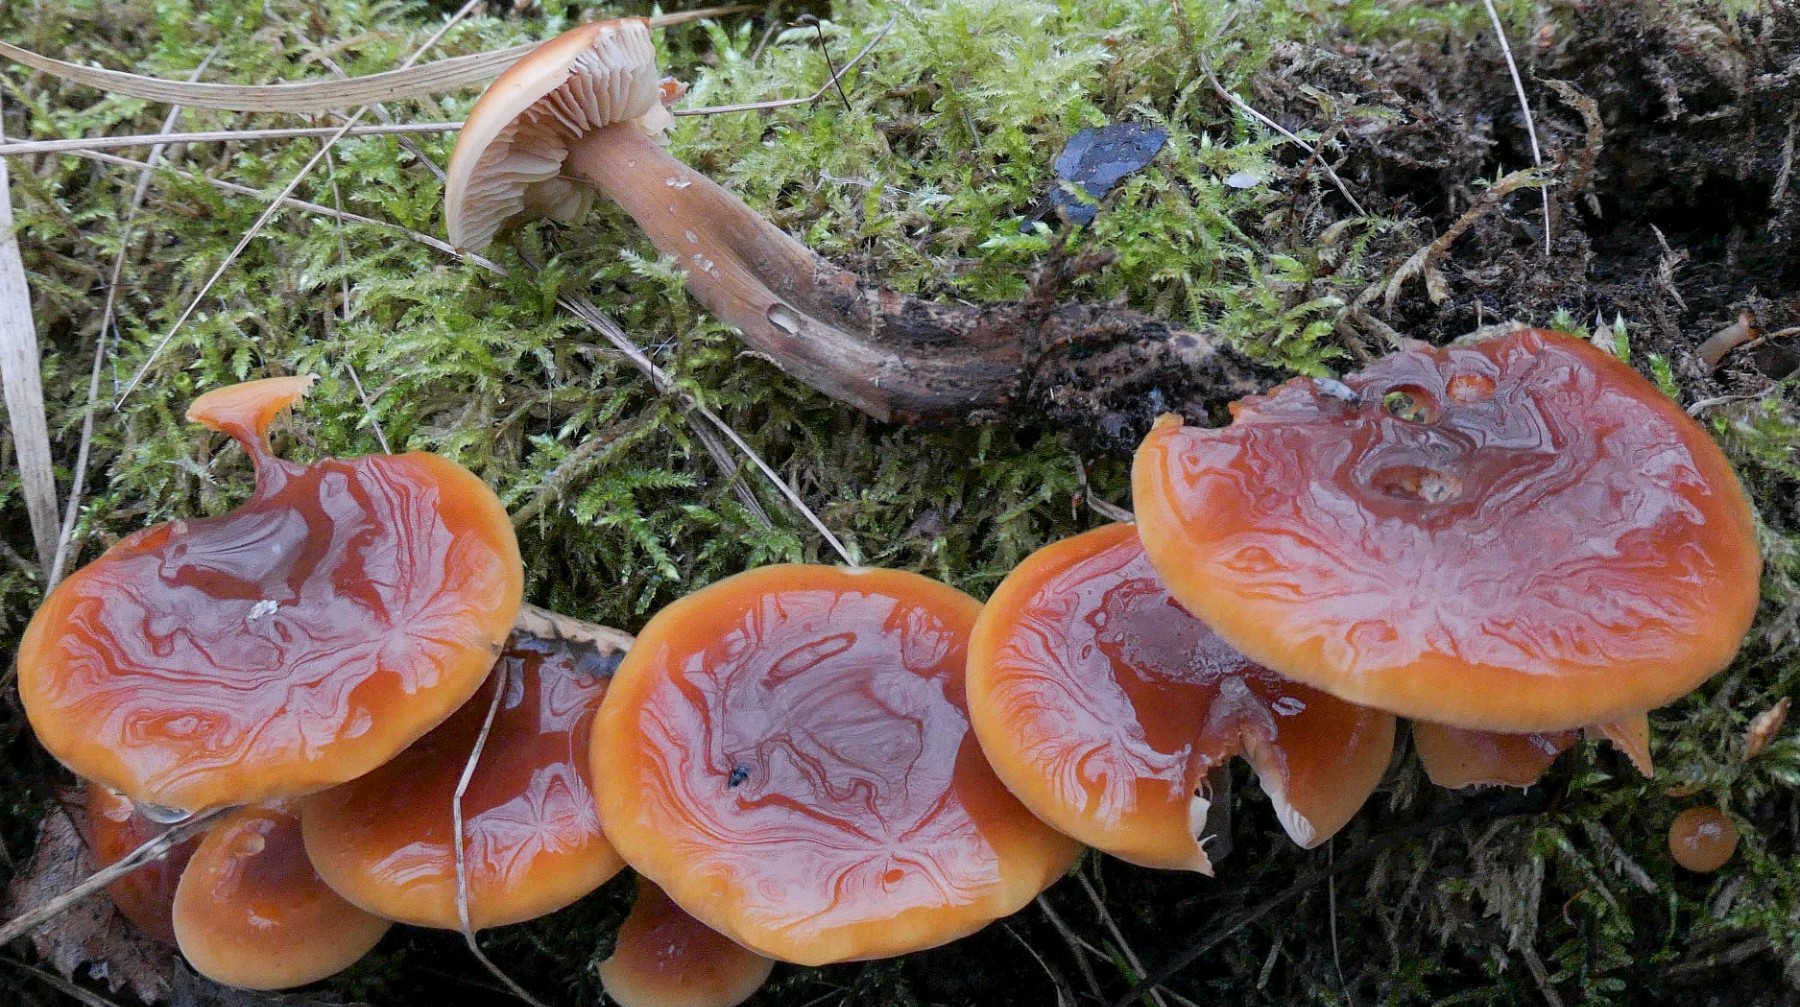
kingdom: Fungi
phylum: Basidiomycota
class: Agaricomycetes
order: Agaricales
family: Physalacriaceae
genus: Flammulina
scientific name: Flammulina populicola
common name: poppel-fløjlsfod
